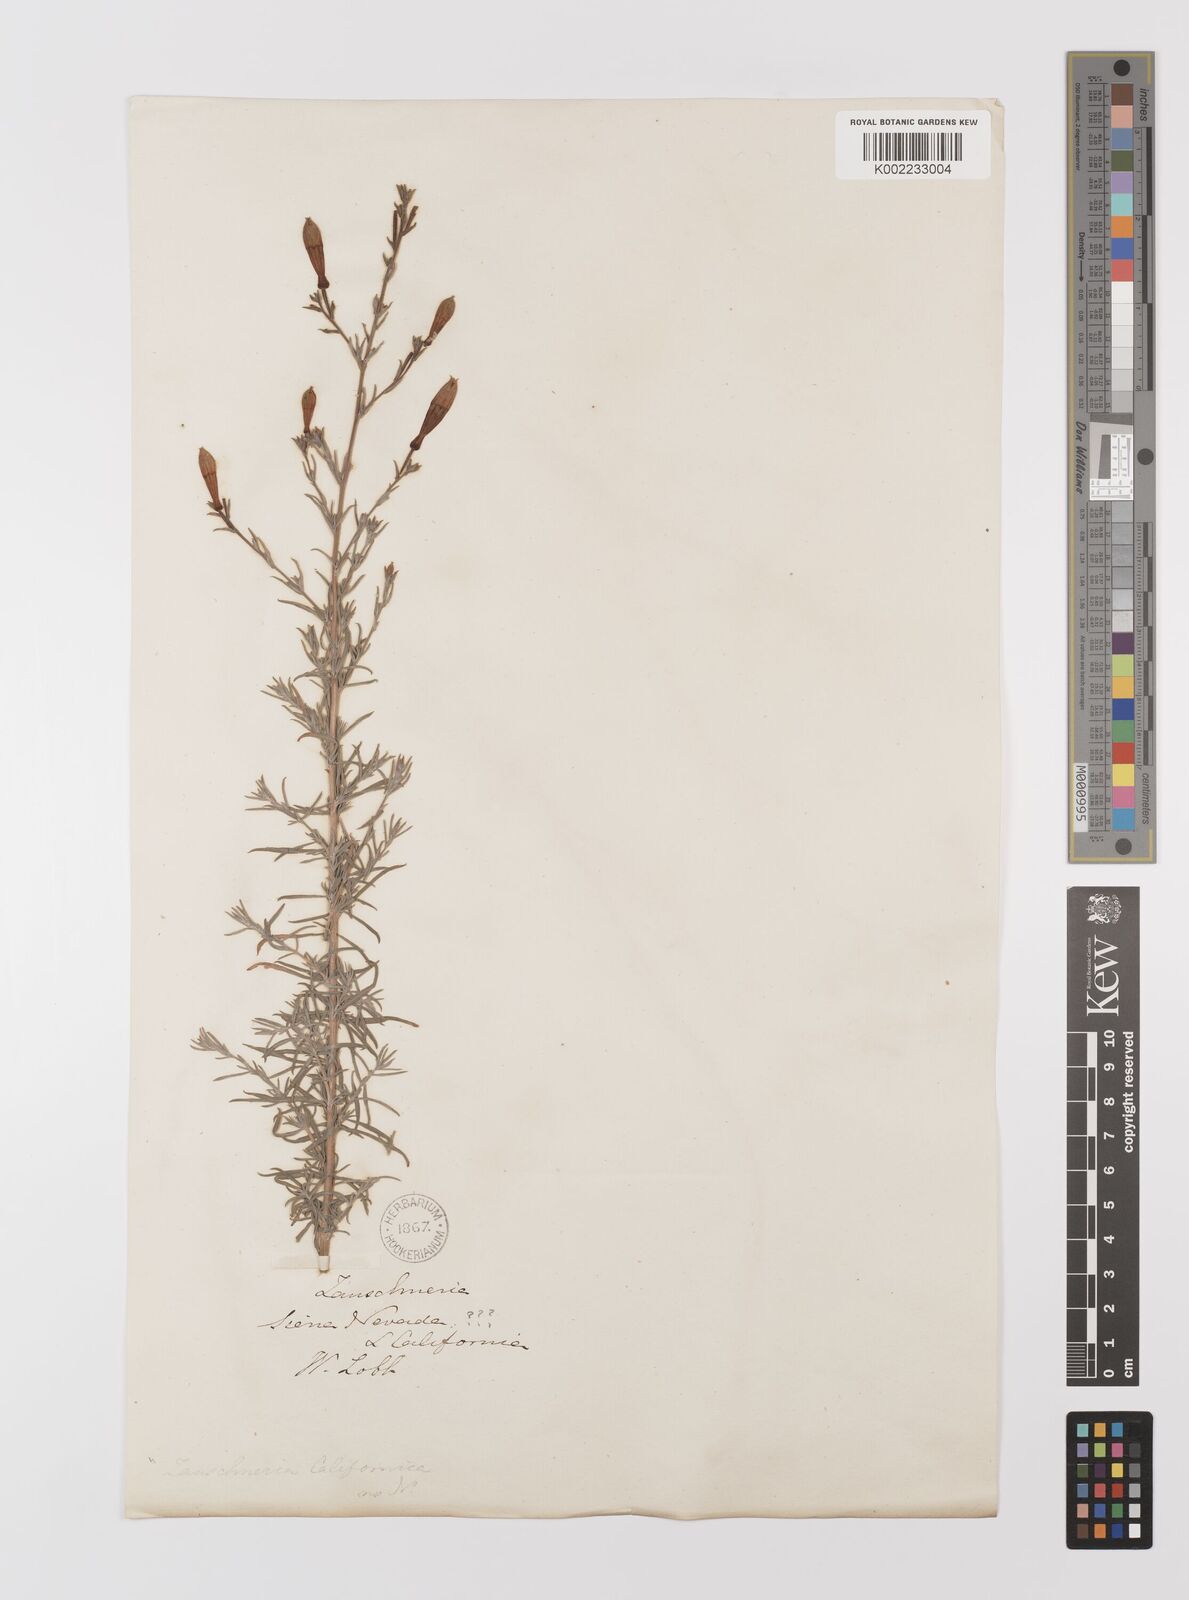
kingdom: Plantae
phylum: Tracheophyta
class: Magnoliopsida
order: Myrtales
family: Onagraceae
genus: Epilobium
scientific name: Epilobium canum
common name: California-fuchsia
